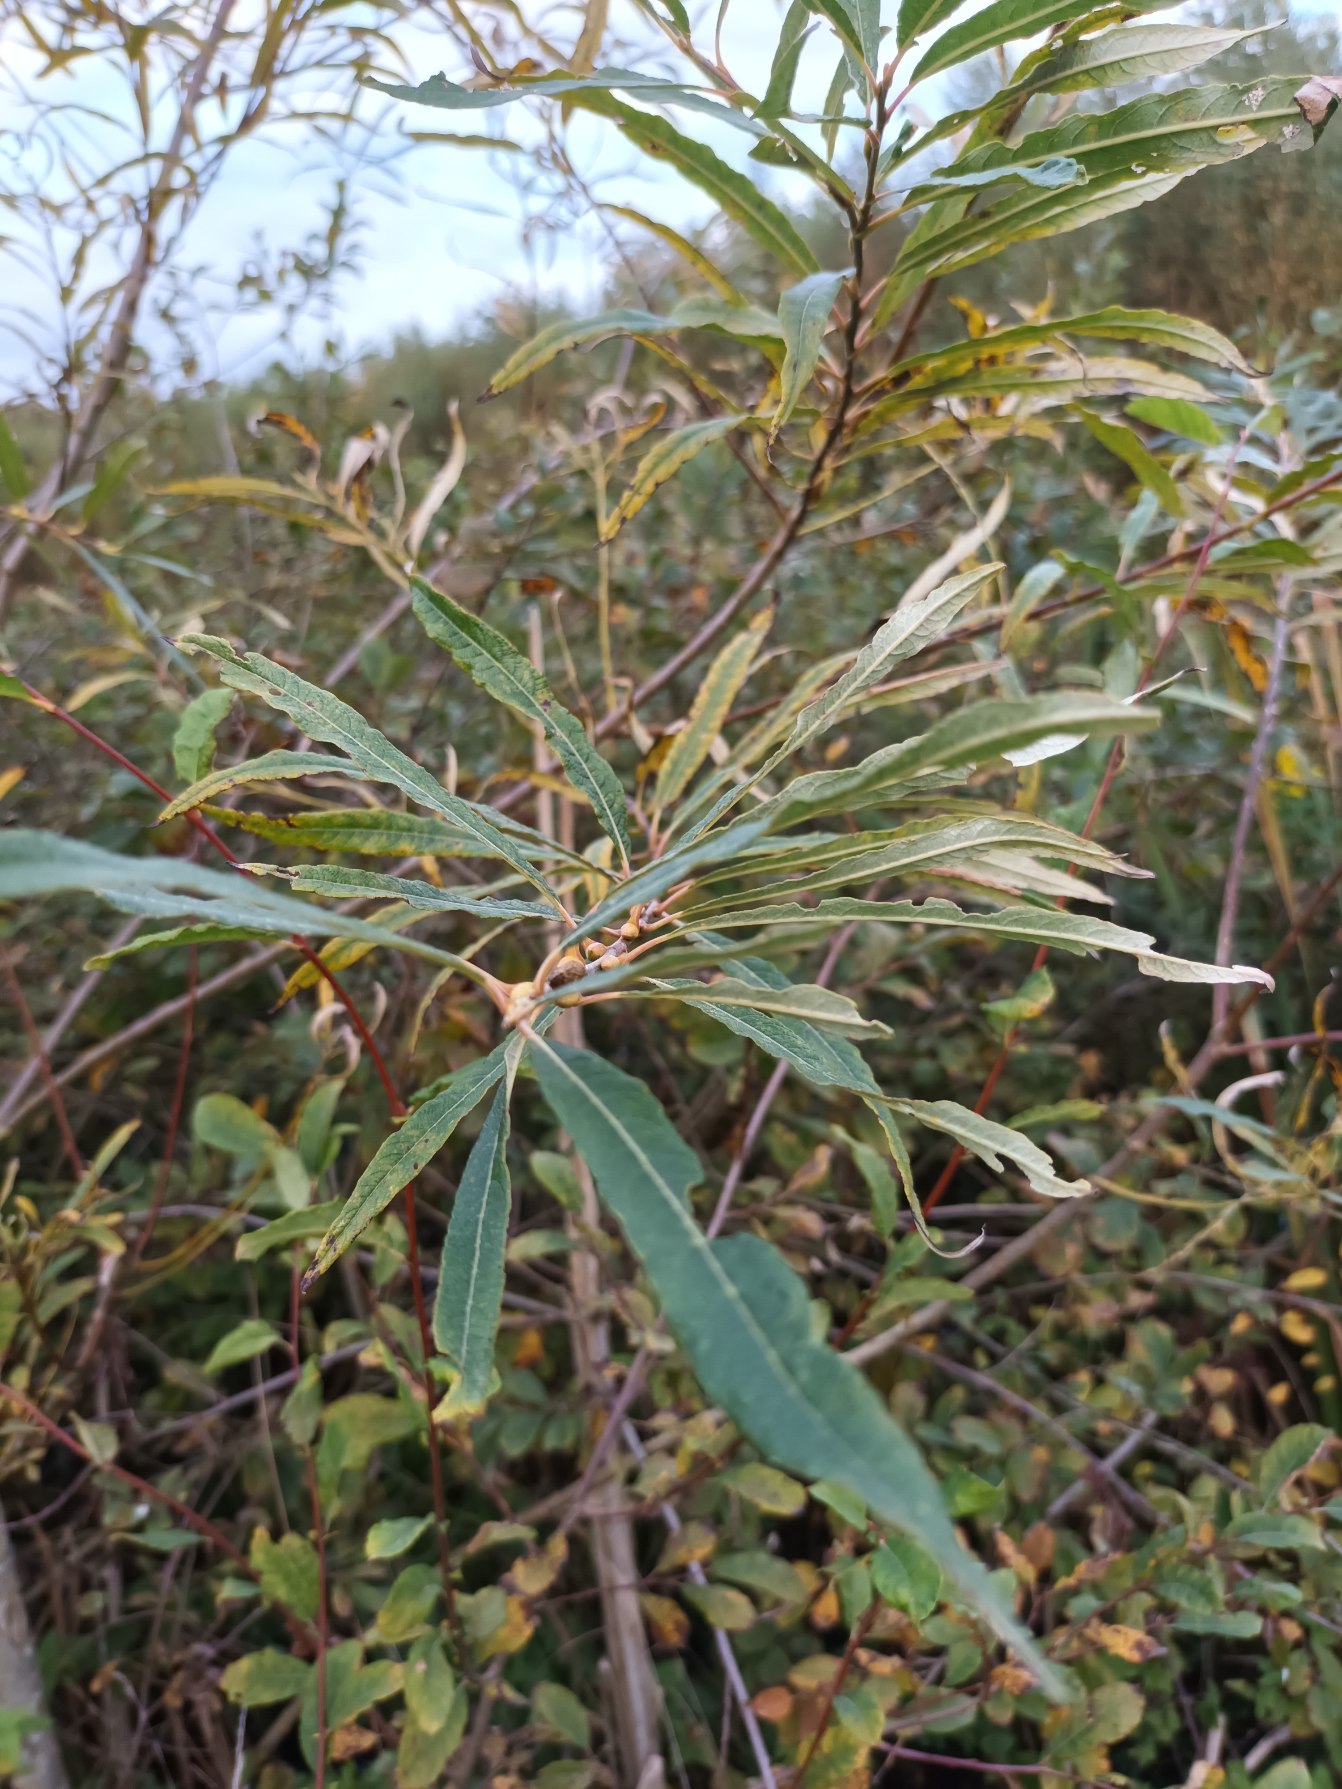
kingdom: Plantae
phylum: Tracheophyta
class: Magnoliopsida
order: Malpighiales
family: Salicaceae
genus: Salix
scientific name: Salix triandra
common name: Mandel-pil
